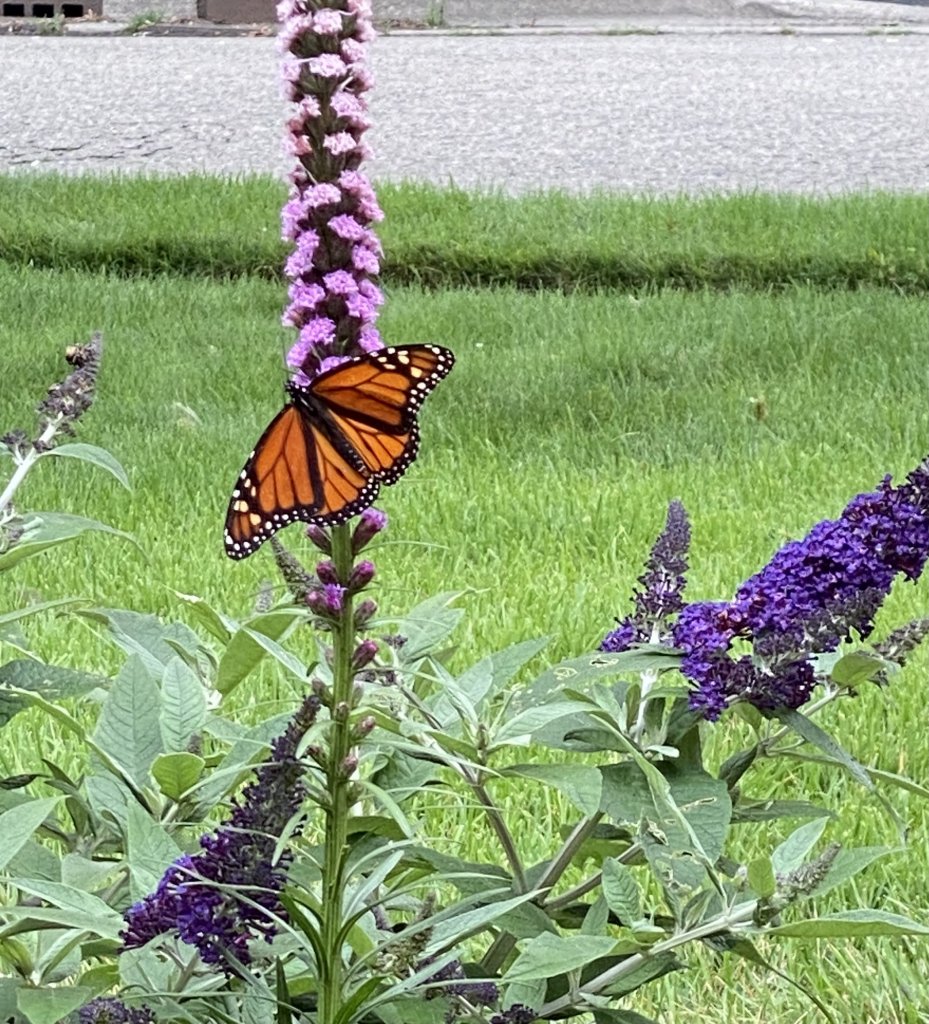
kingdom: Animalia
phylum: Arthropoda
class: Insecta
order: Lepidoptera
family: Nymphalidae
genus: Danaus
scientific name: Danaus plexippus
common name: Monarch
